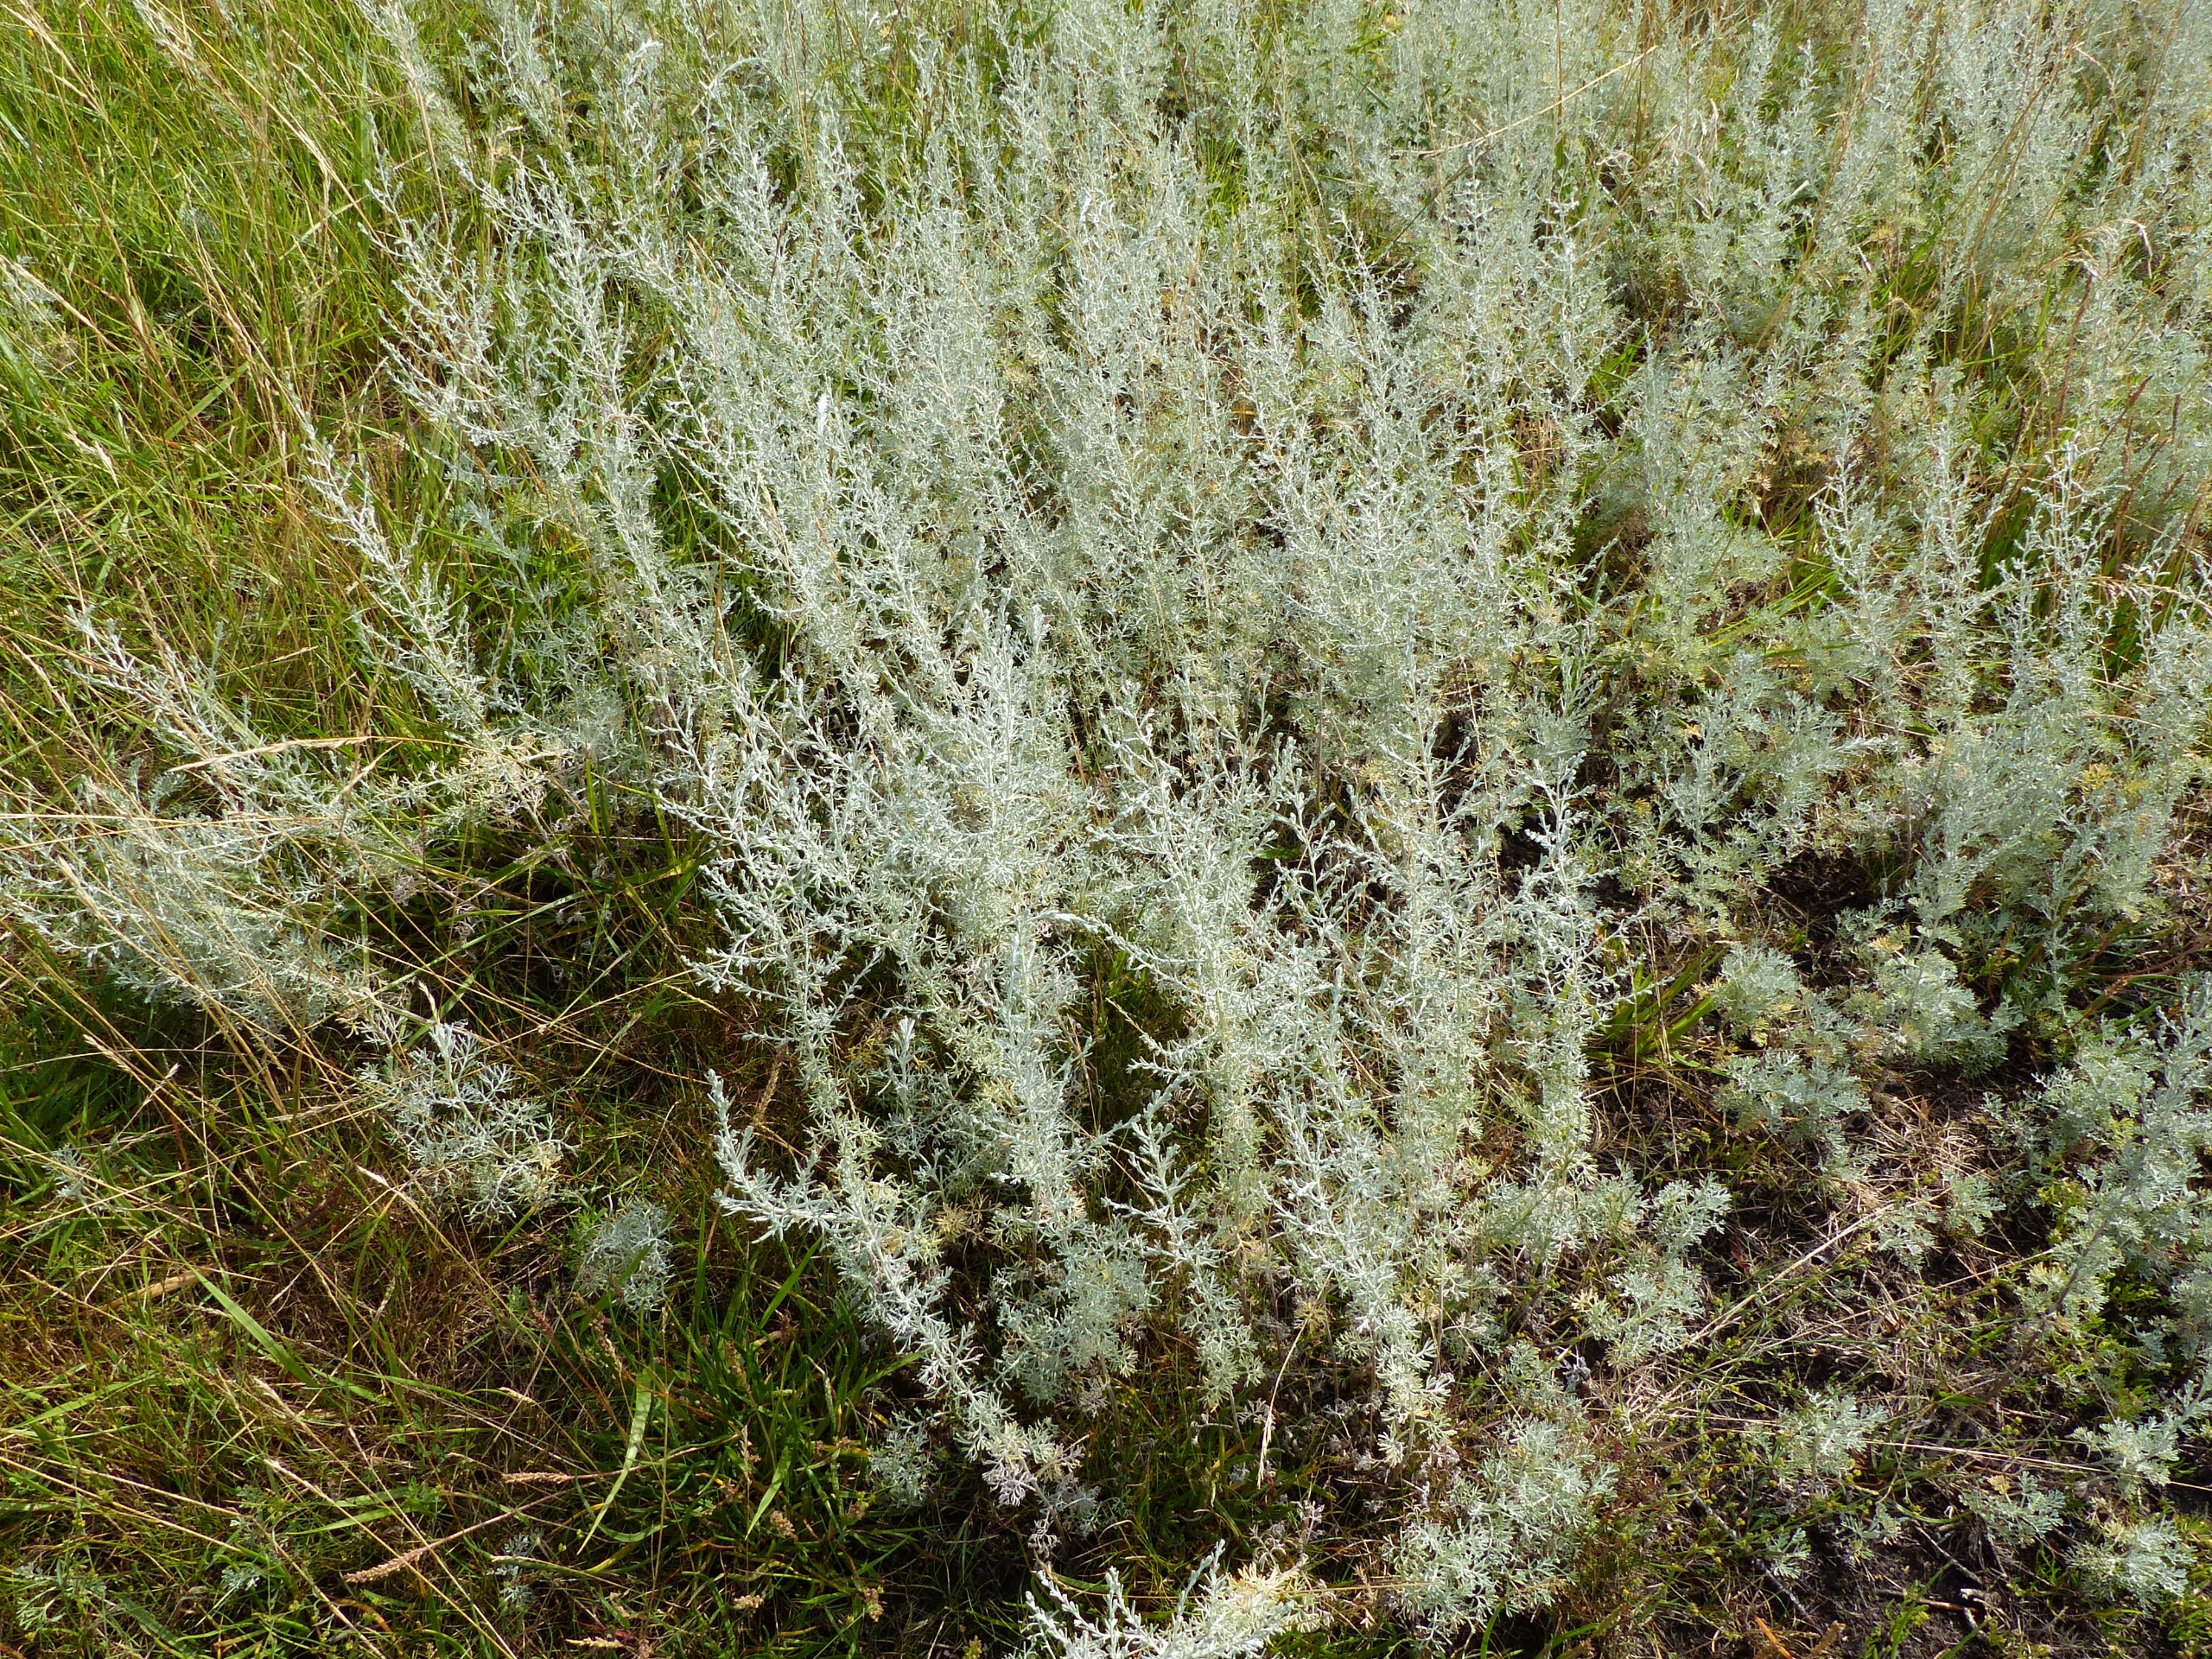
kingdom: Plantae
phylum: Tracheophyta
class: Magnoliopsida
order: Asterales
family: Asteraceae
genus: Artemisia
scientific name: Artemisia maritima
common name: Strandmalurt
